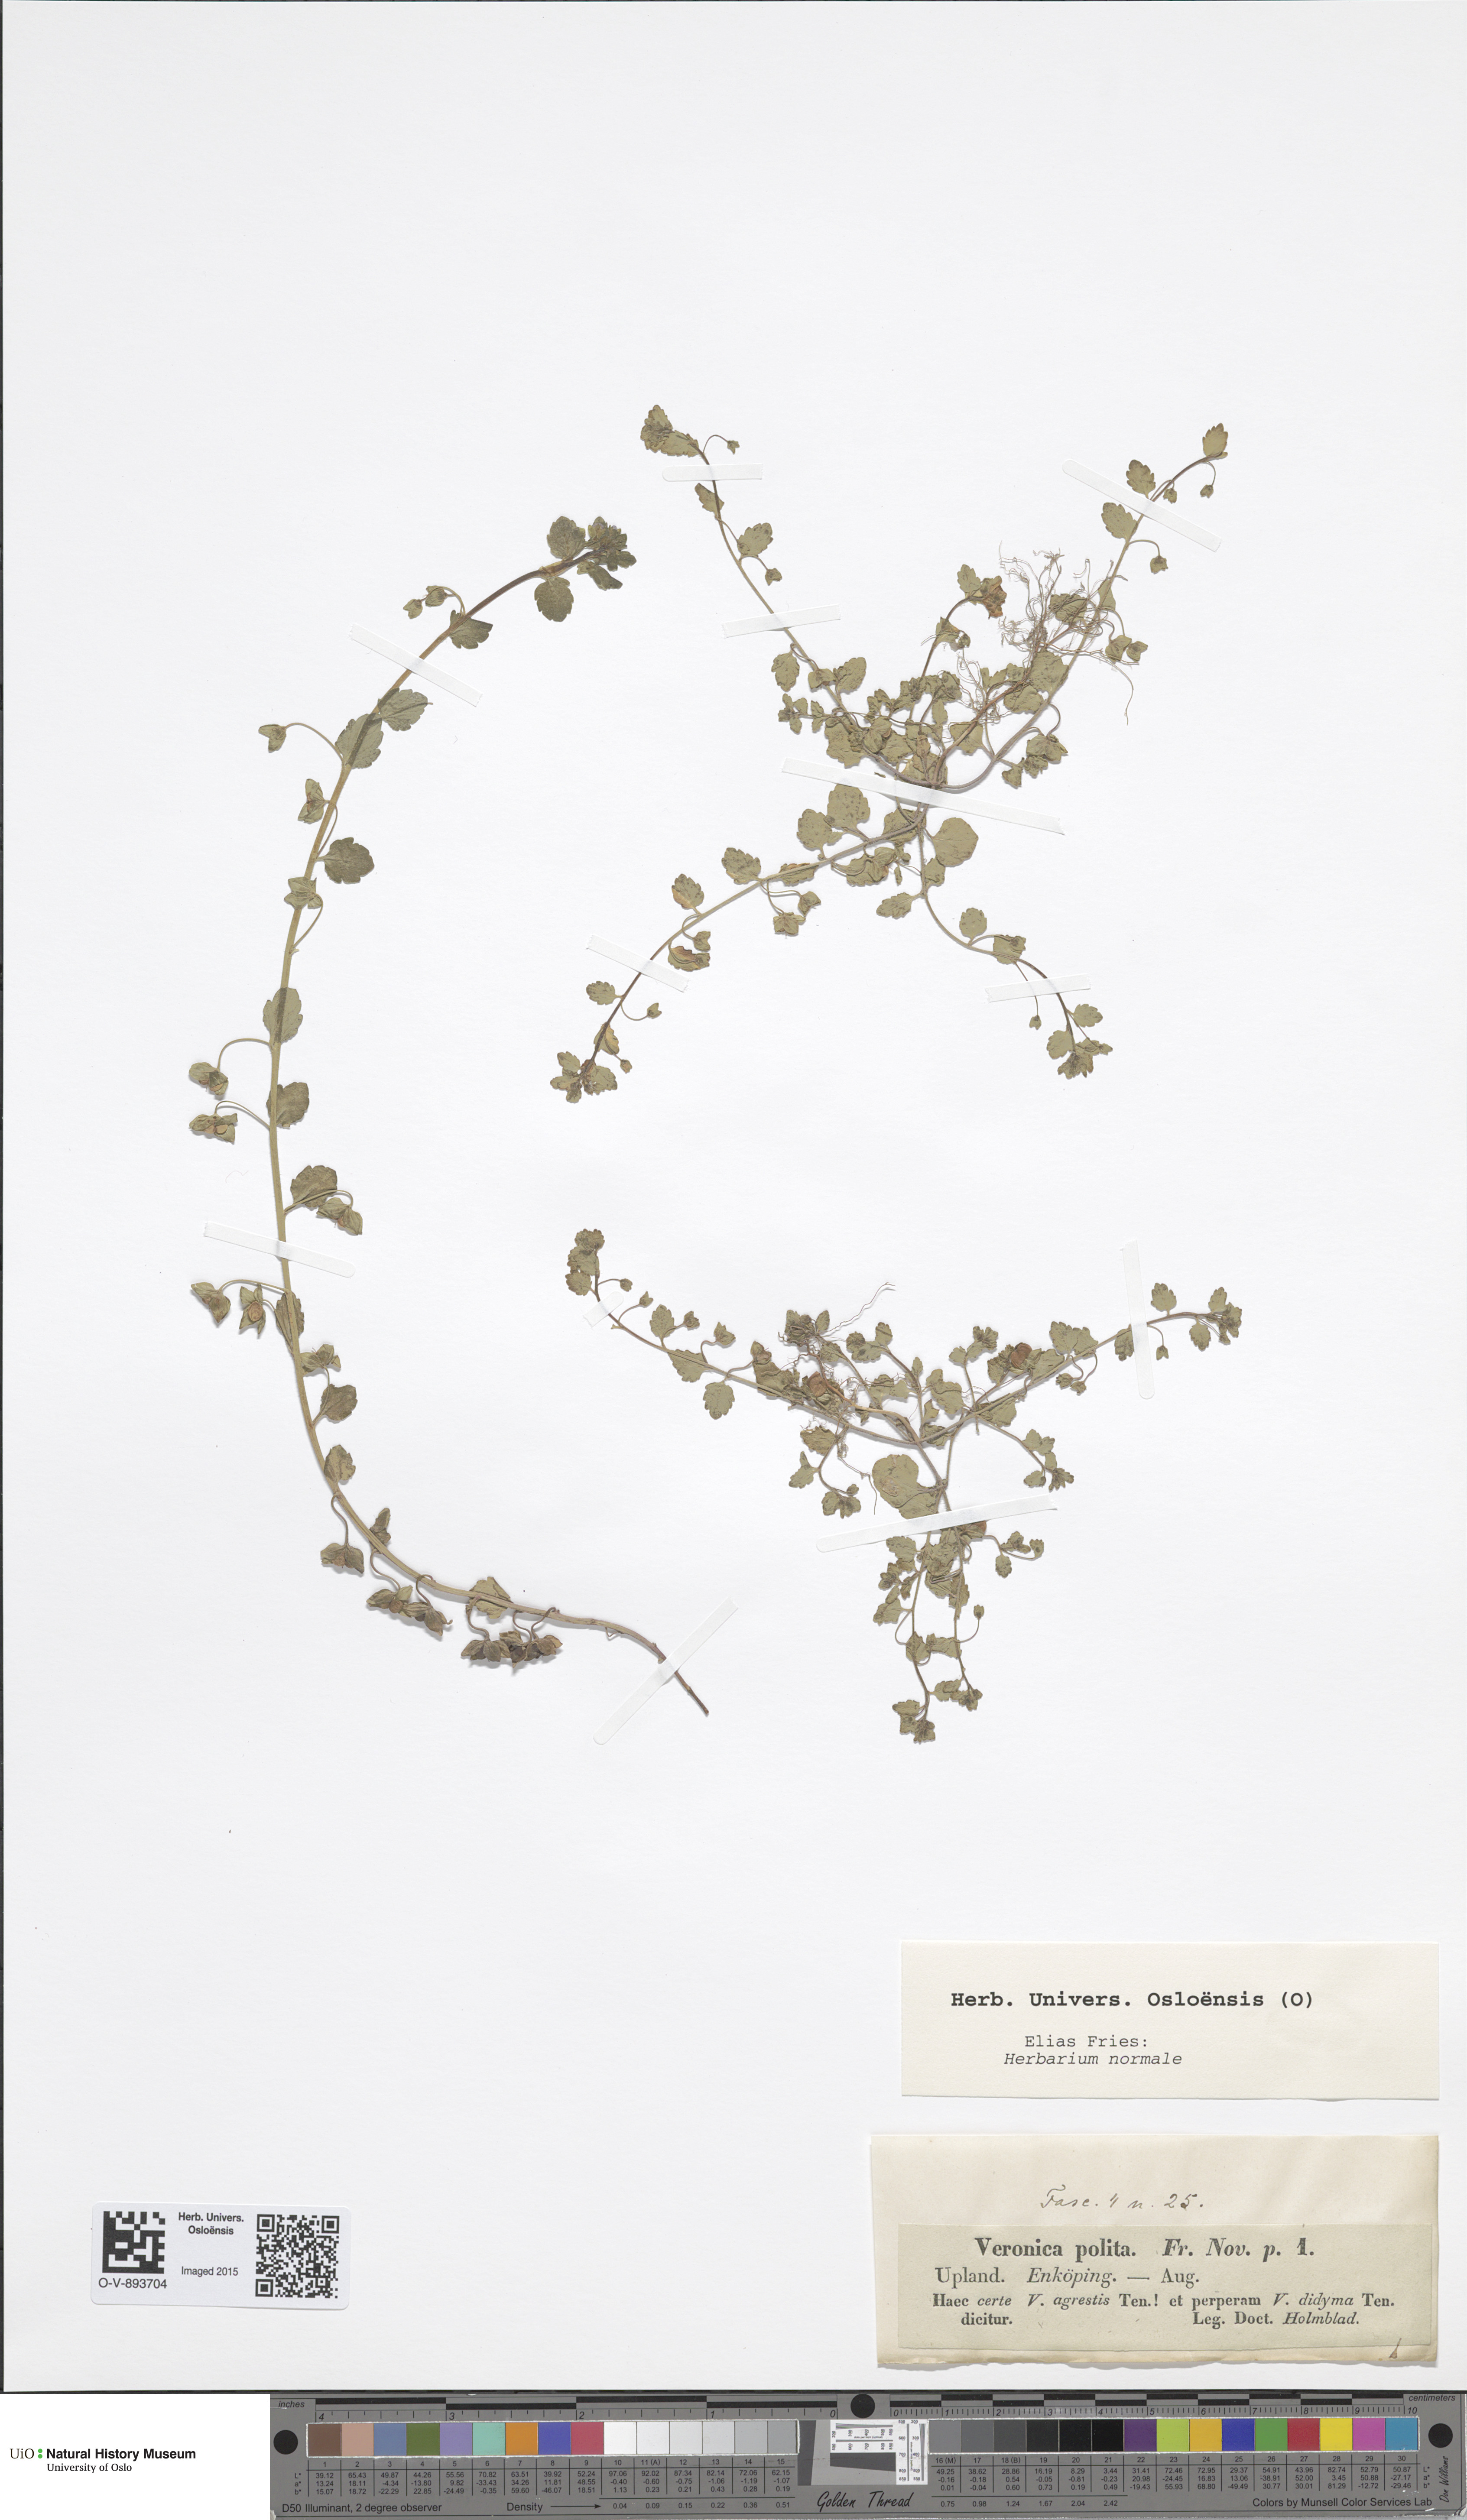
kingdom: Plantae
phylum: Tracheophyta
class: Magnoliopsida
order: Lamiales
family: Plantaginaceae
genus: Veronica
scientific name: Veronica polita
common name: Grey field-speedwell
